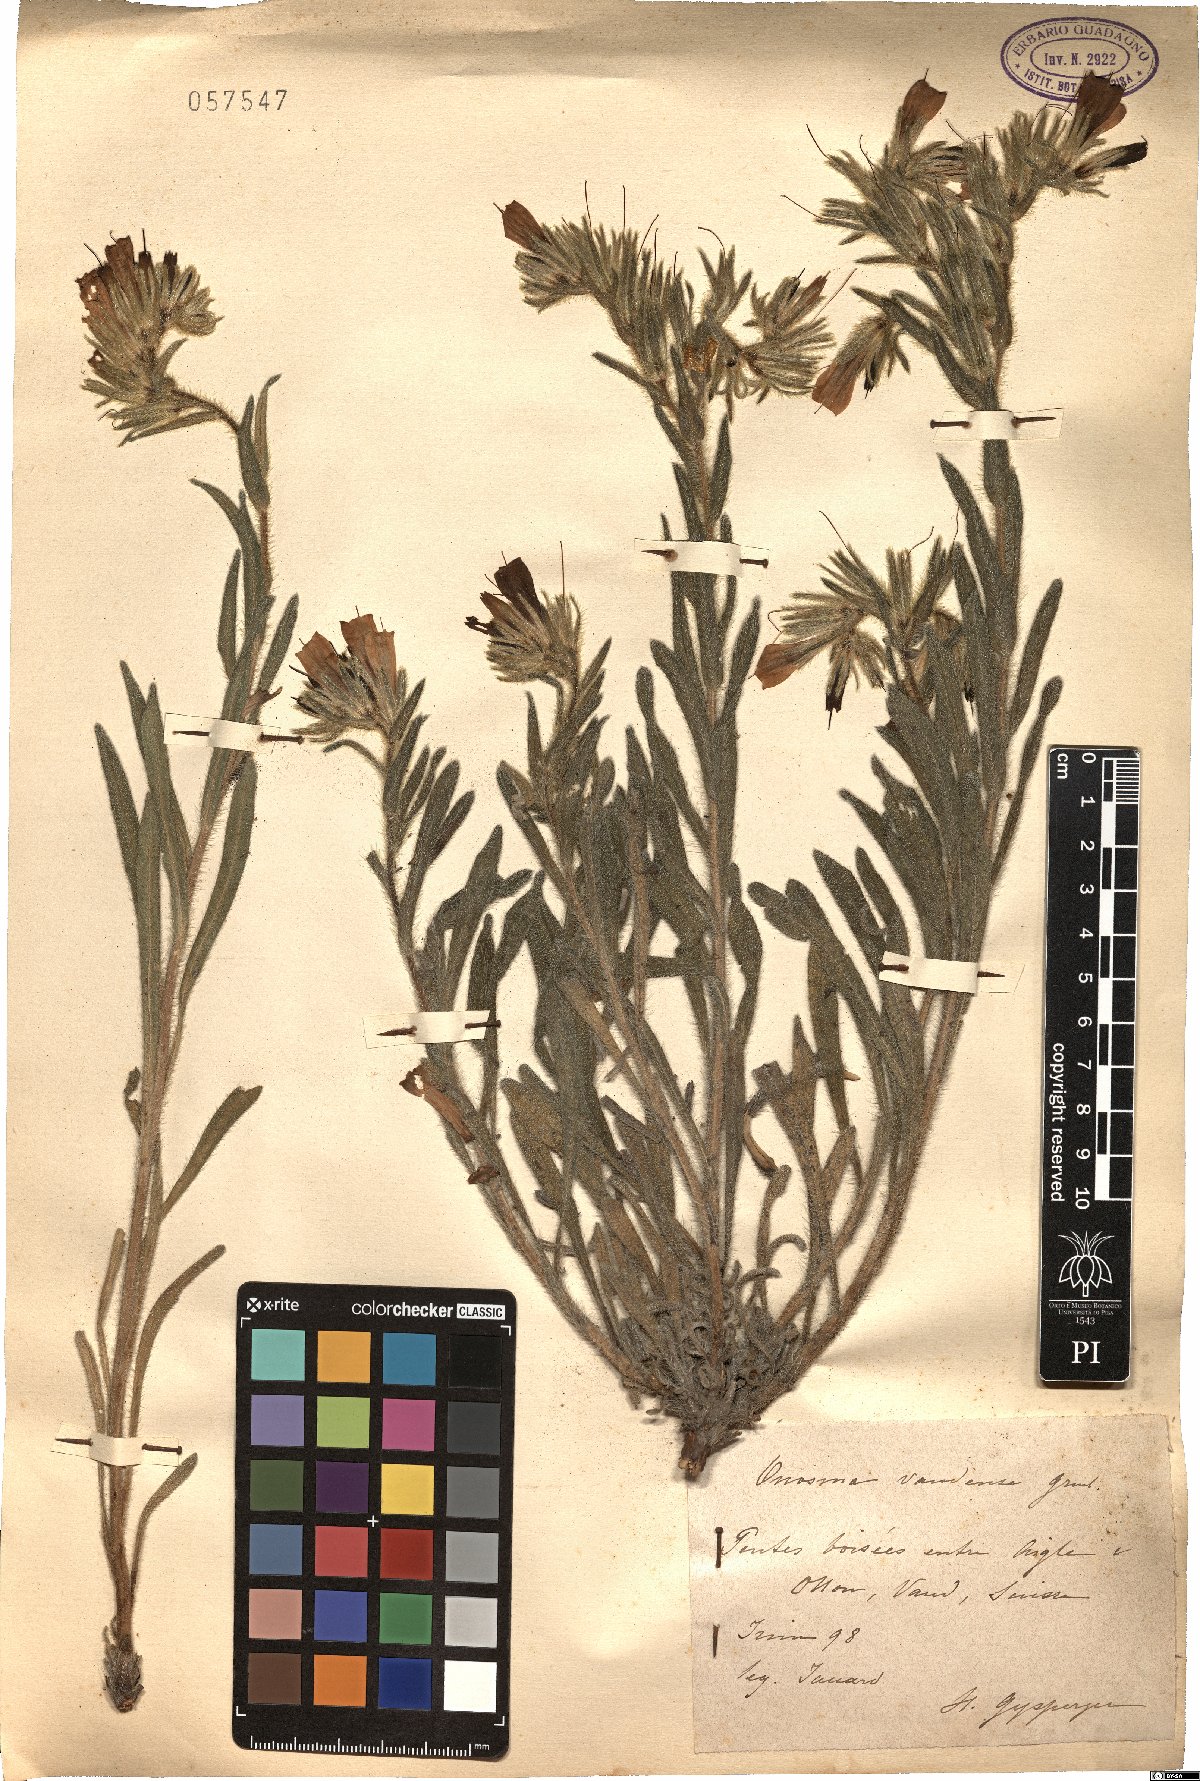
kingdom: Plantae
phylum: Tracheophyta
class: Magnoliopsida
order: Boraginales
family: Boraginaceae
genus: Onosma
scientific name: Onosma arenaria
